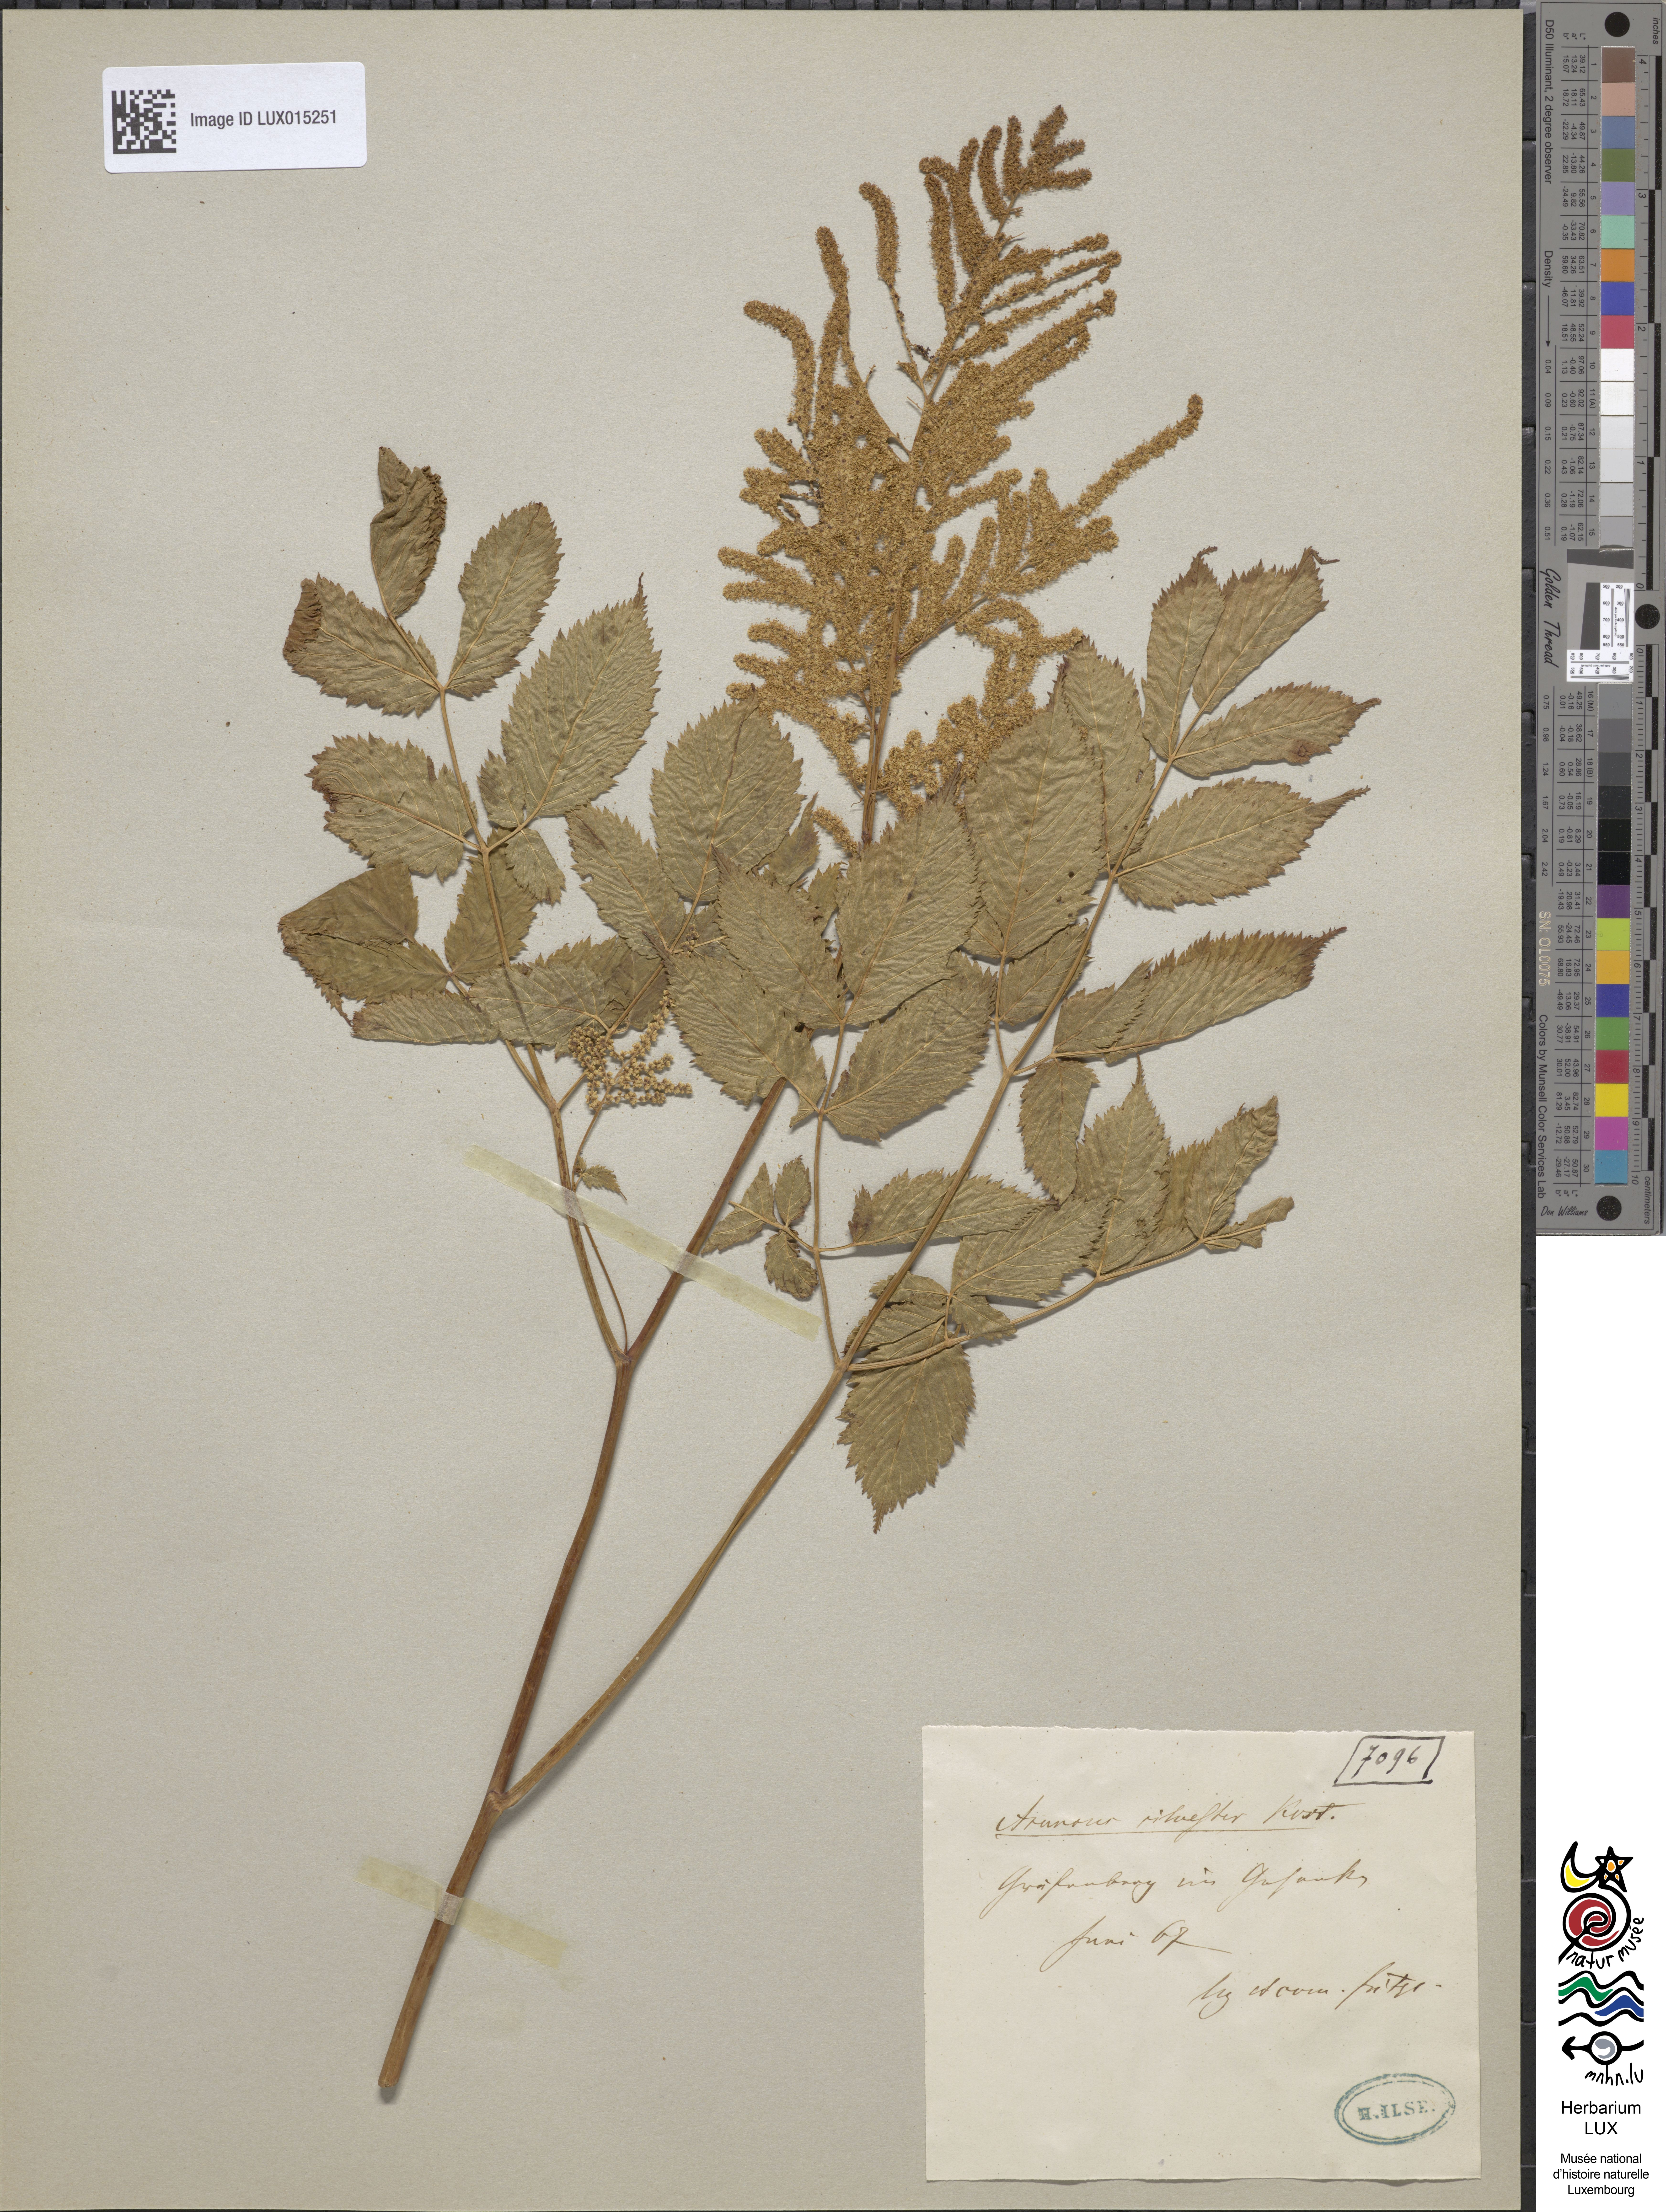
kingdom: Plantae
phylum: Tracheophyta
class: Magnoliopsida
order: Rosales
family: Rosaceae
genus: Aruncus
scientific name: Aruncus dioicus
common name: Buck's-beard
